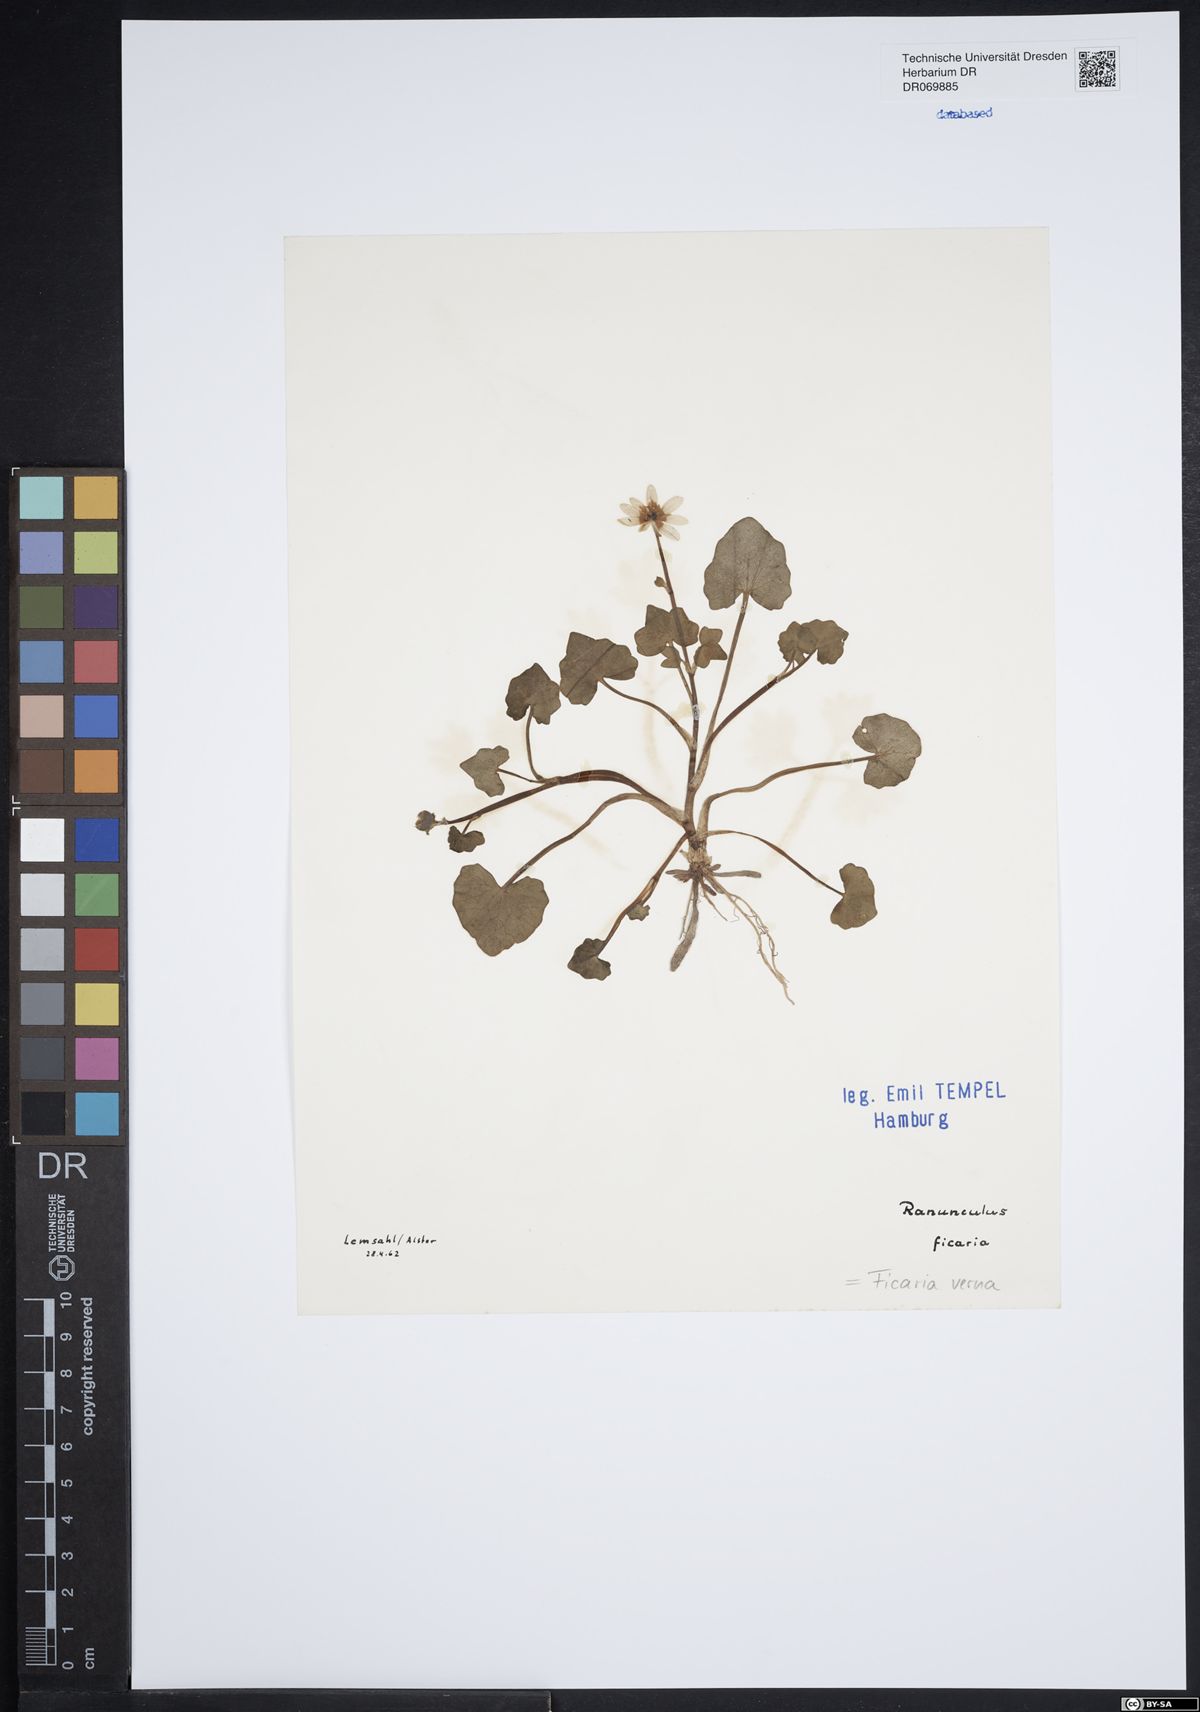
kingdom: Plantae
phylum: Tracheophyta
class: Magnoliopsida
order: Ranunculales
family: Ranunculaceae
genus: Ficaria
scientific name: Ficaria verna
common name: Lesser celandine
